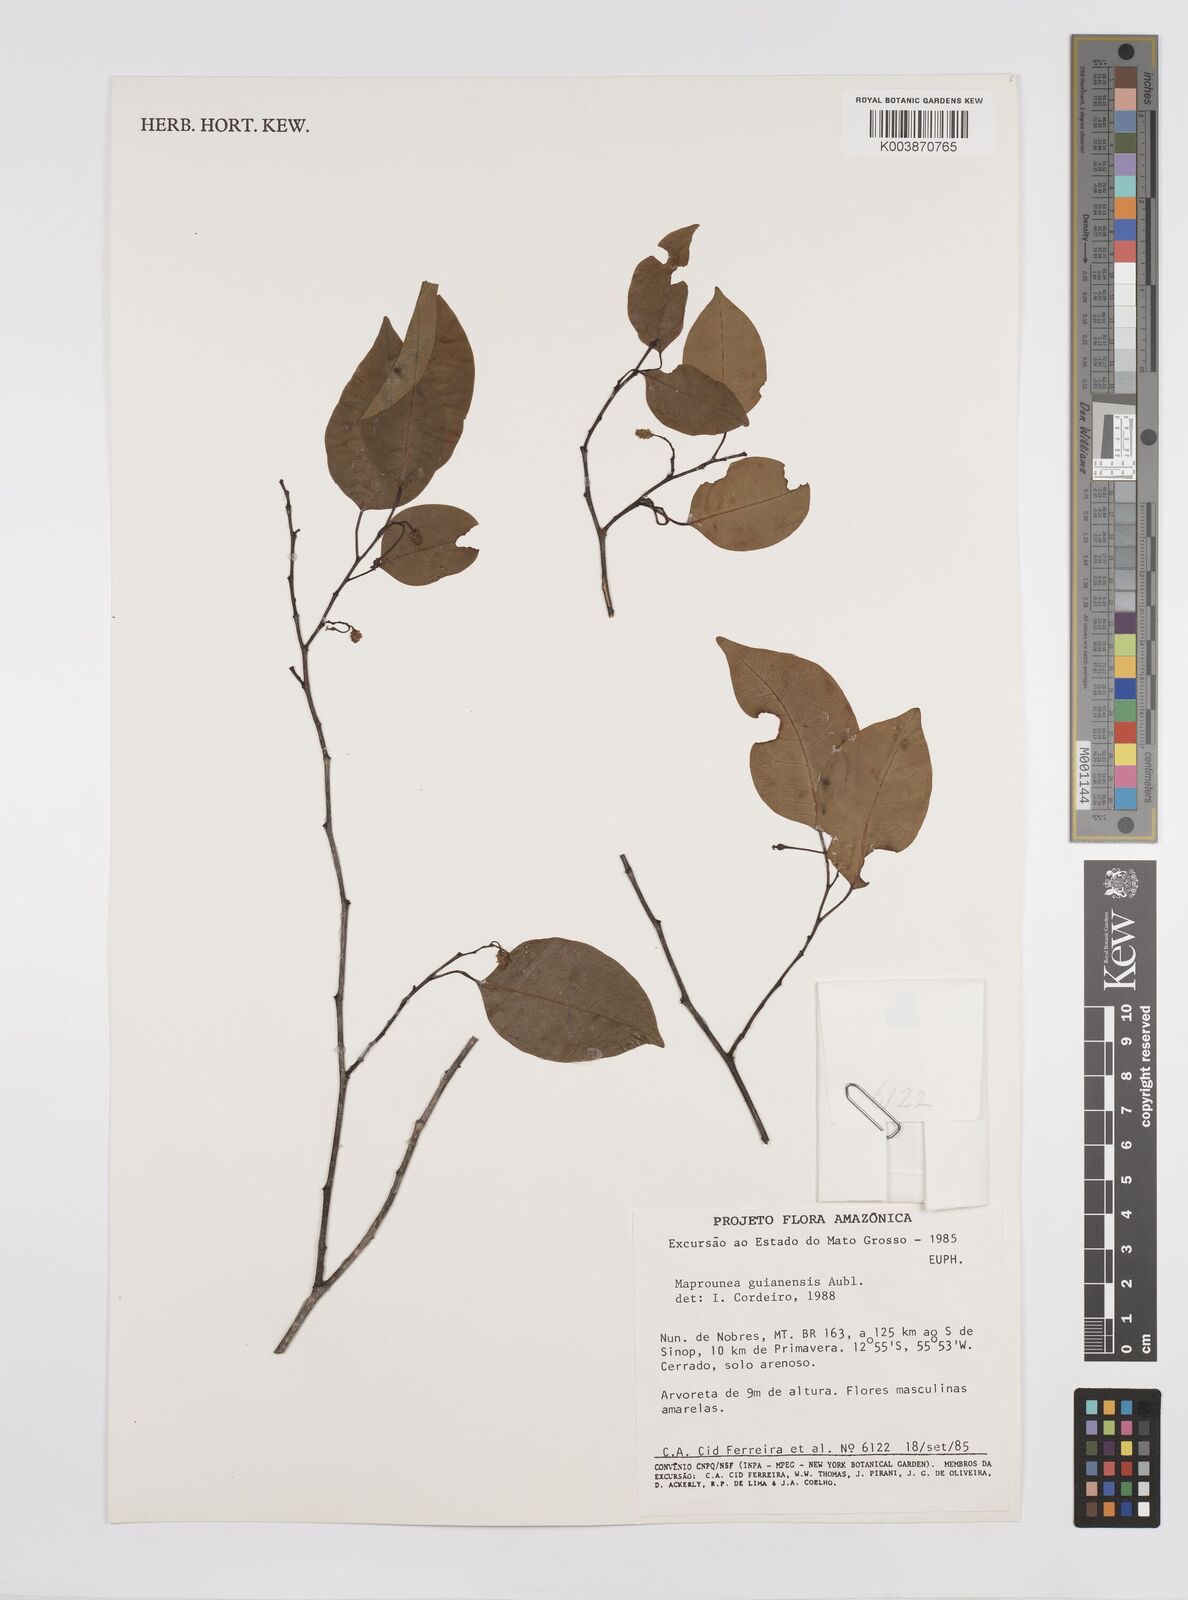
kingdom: Plantae
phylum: Tracheophyta
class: Magnoliopsida
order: Malpighiales
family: Euphorbiaceae
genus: Maprounea
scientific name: Maprounea guianensis
